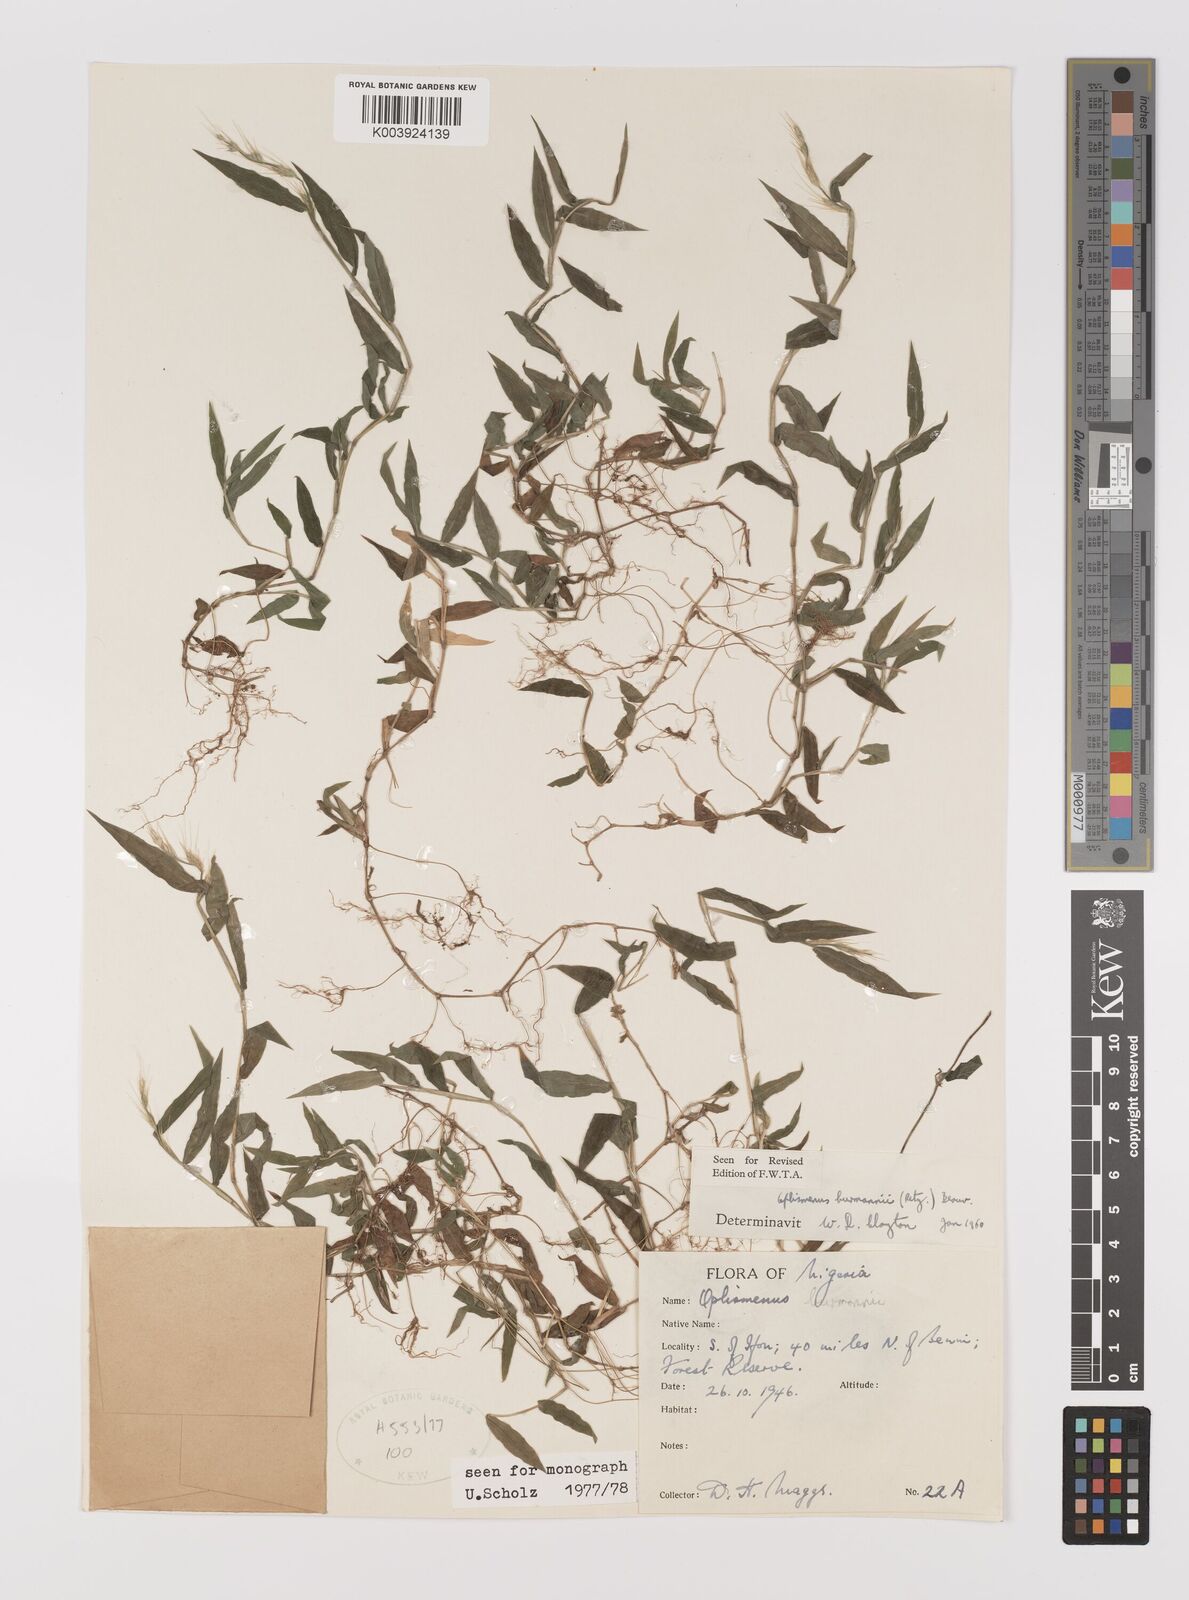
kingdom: Plantae
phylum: Tracheophyta
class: Liliopsida
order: Poales
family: Poaceae
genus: Oplismenus
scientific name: Oplismenus burmanni
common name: Burmann's basketgrass
